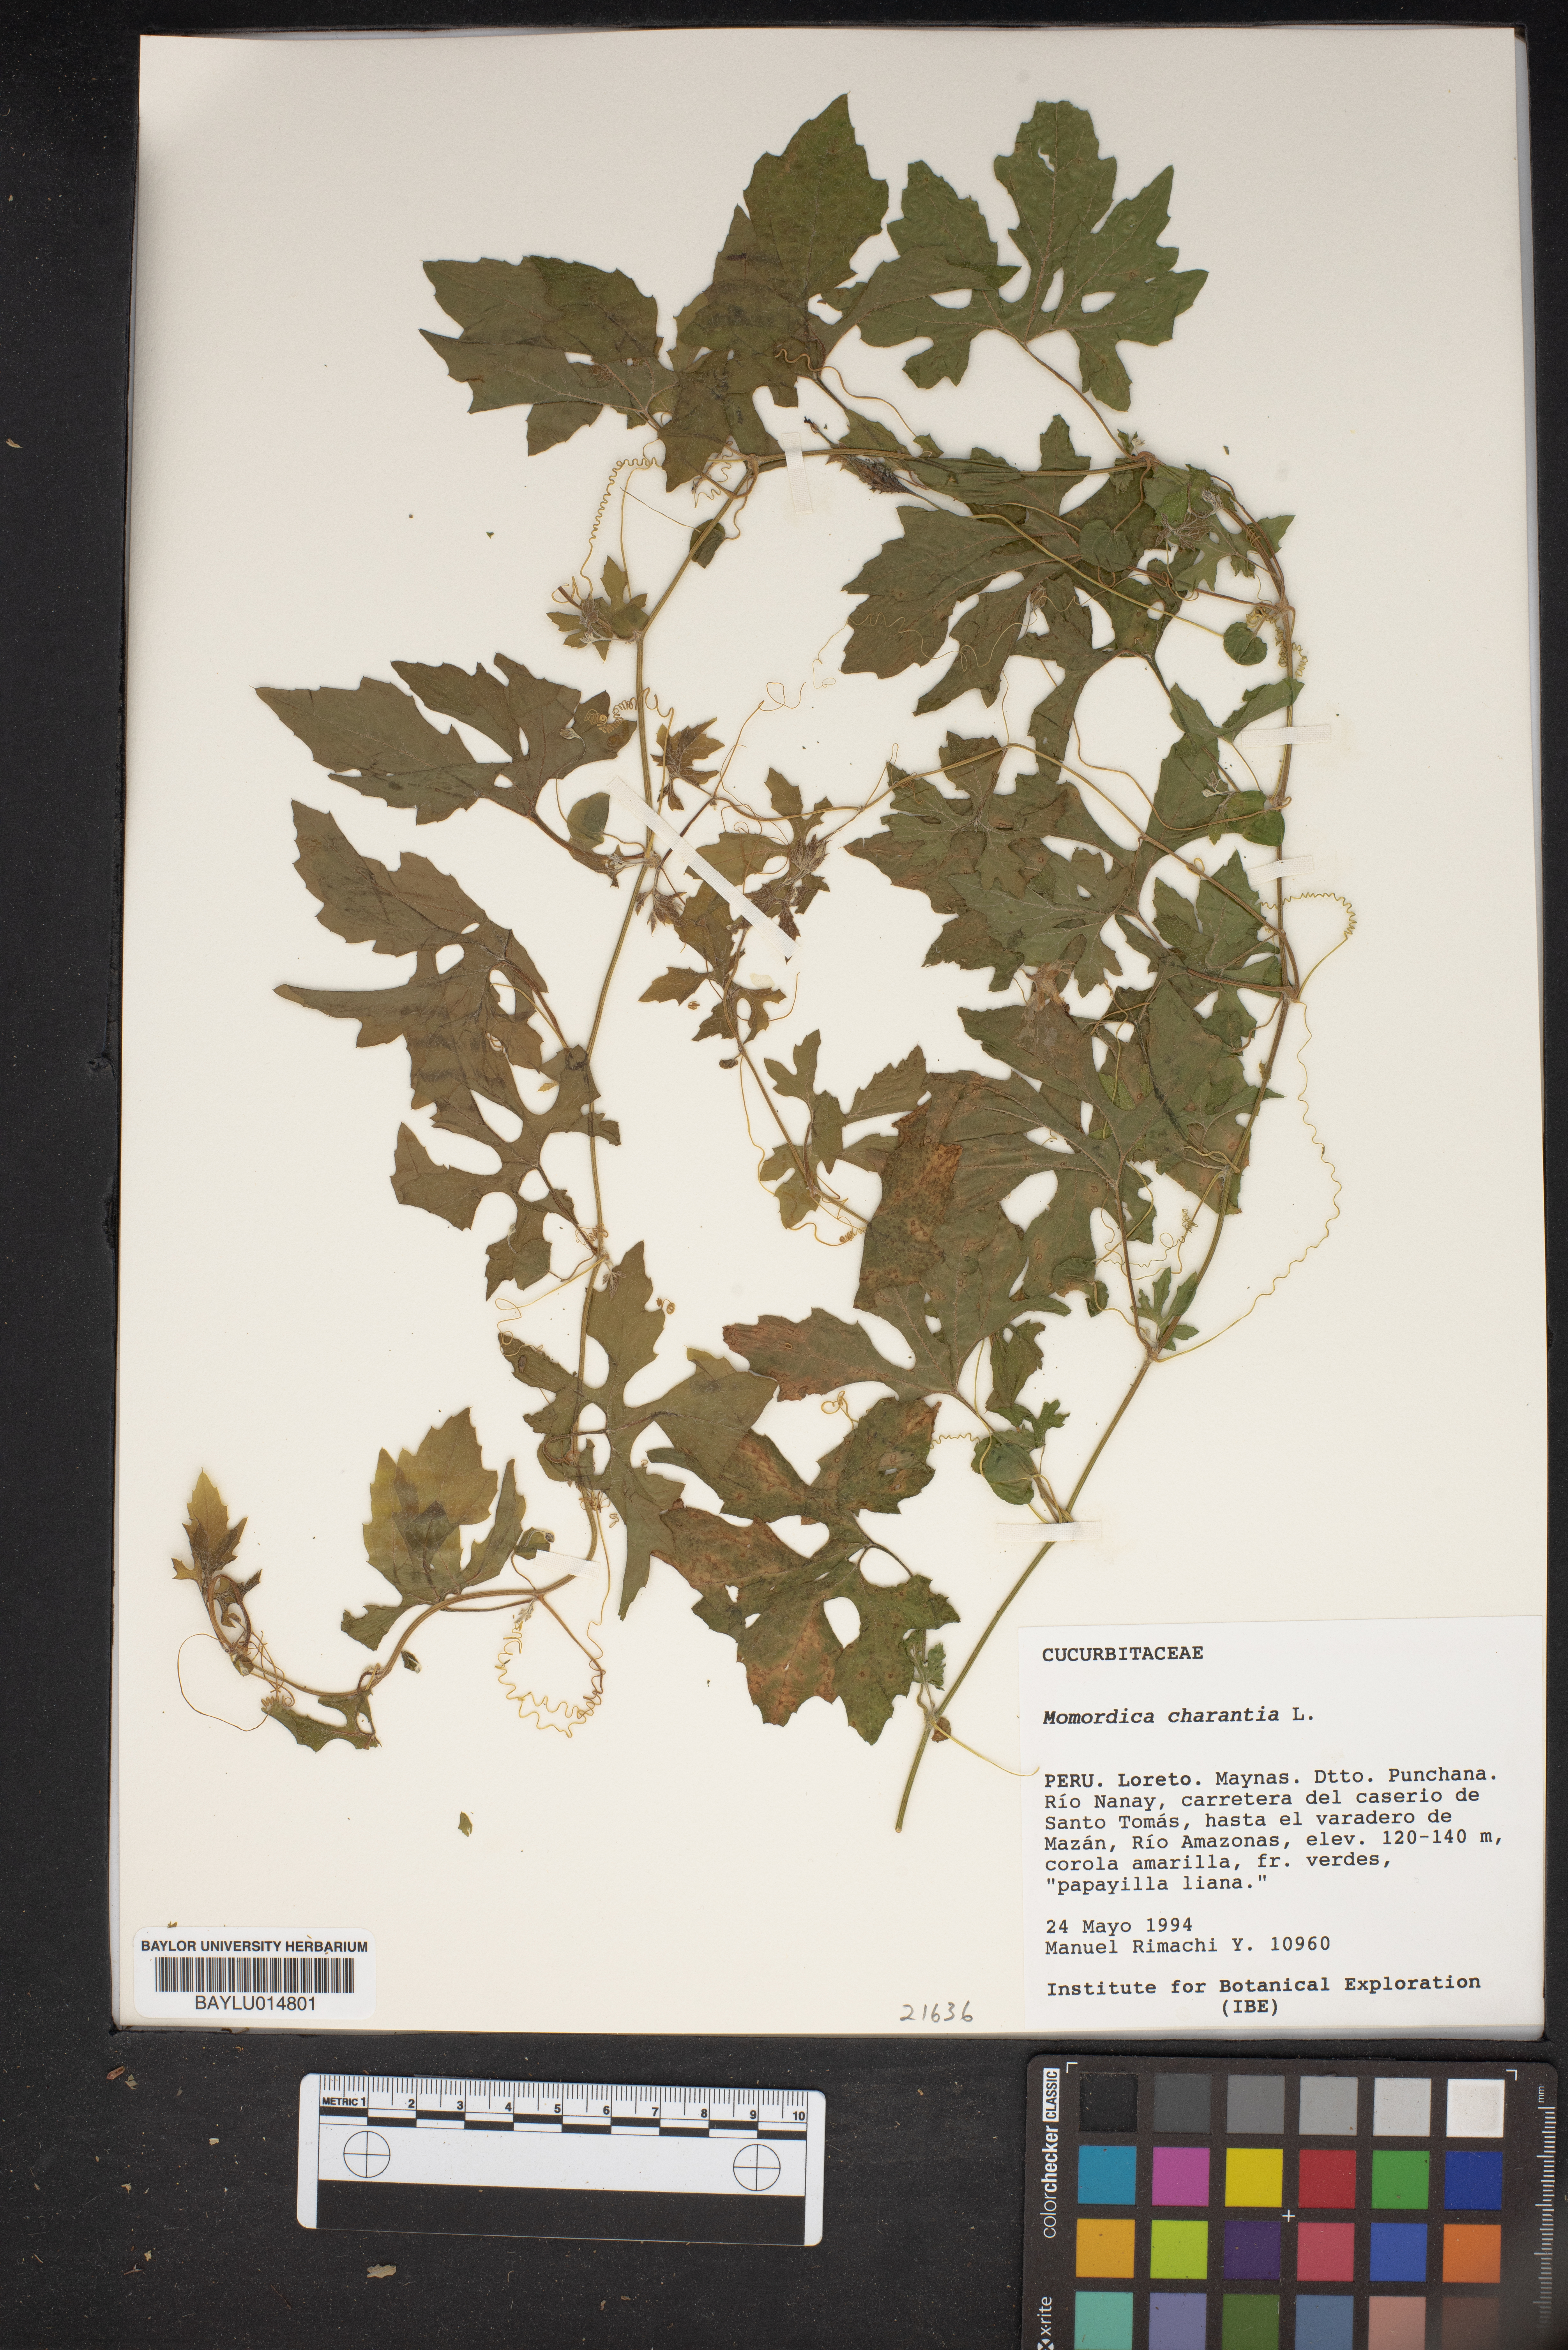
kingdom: Plantae
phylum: Tracheophyta
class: Magnoliopsida
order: Cucurbitales
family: Cucurbitaceae
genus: Momordica
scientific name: Momordica charantia
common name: Balsampear
